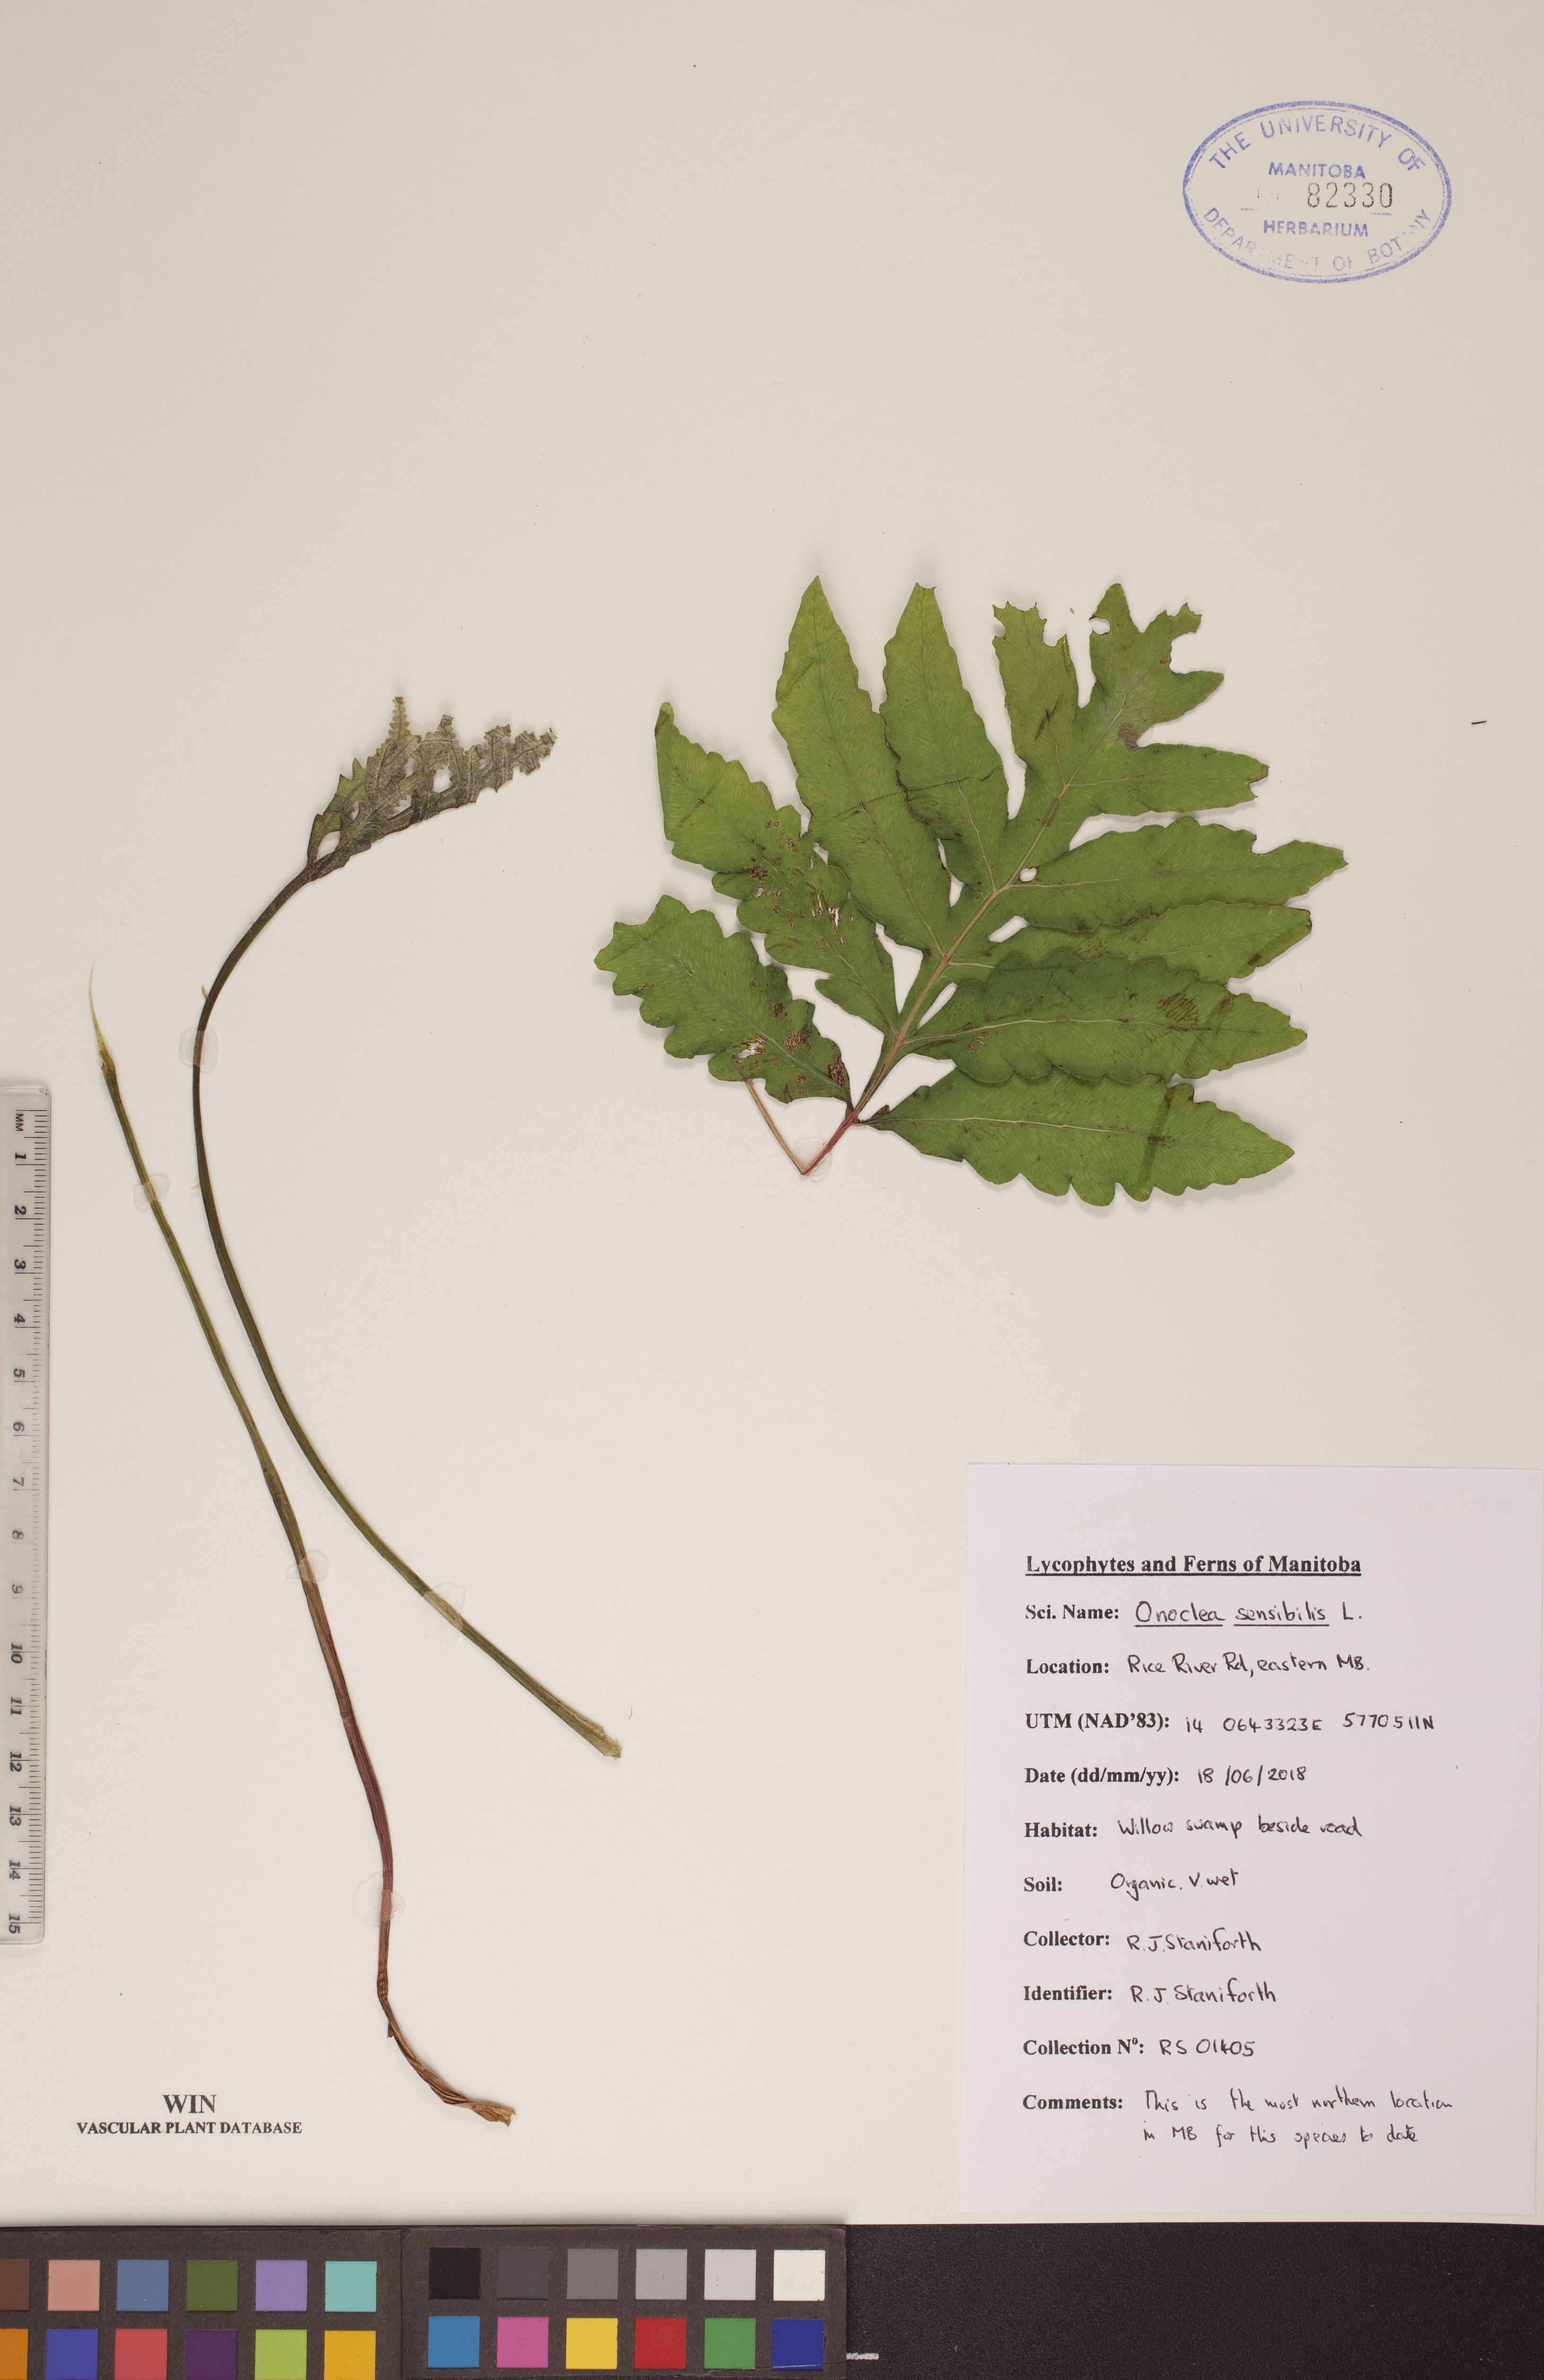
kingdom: Plantae
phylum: Tracheophyta
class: Polypodiopsida
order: Polypodiales
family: Onocleaceae
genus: Onoclea
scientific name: Onoclea sensibilis
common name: Sensitive fern
